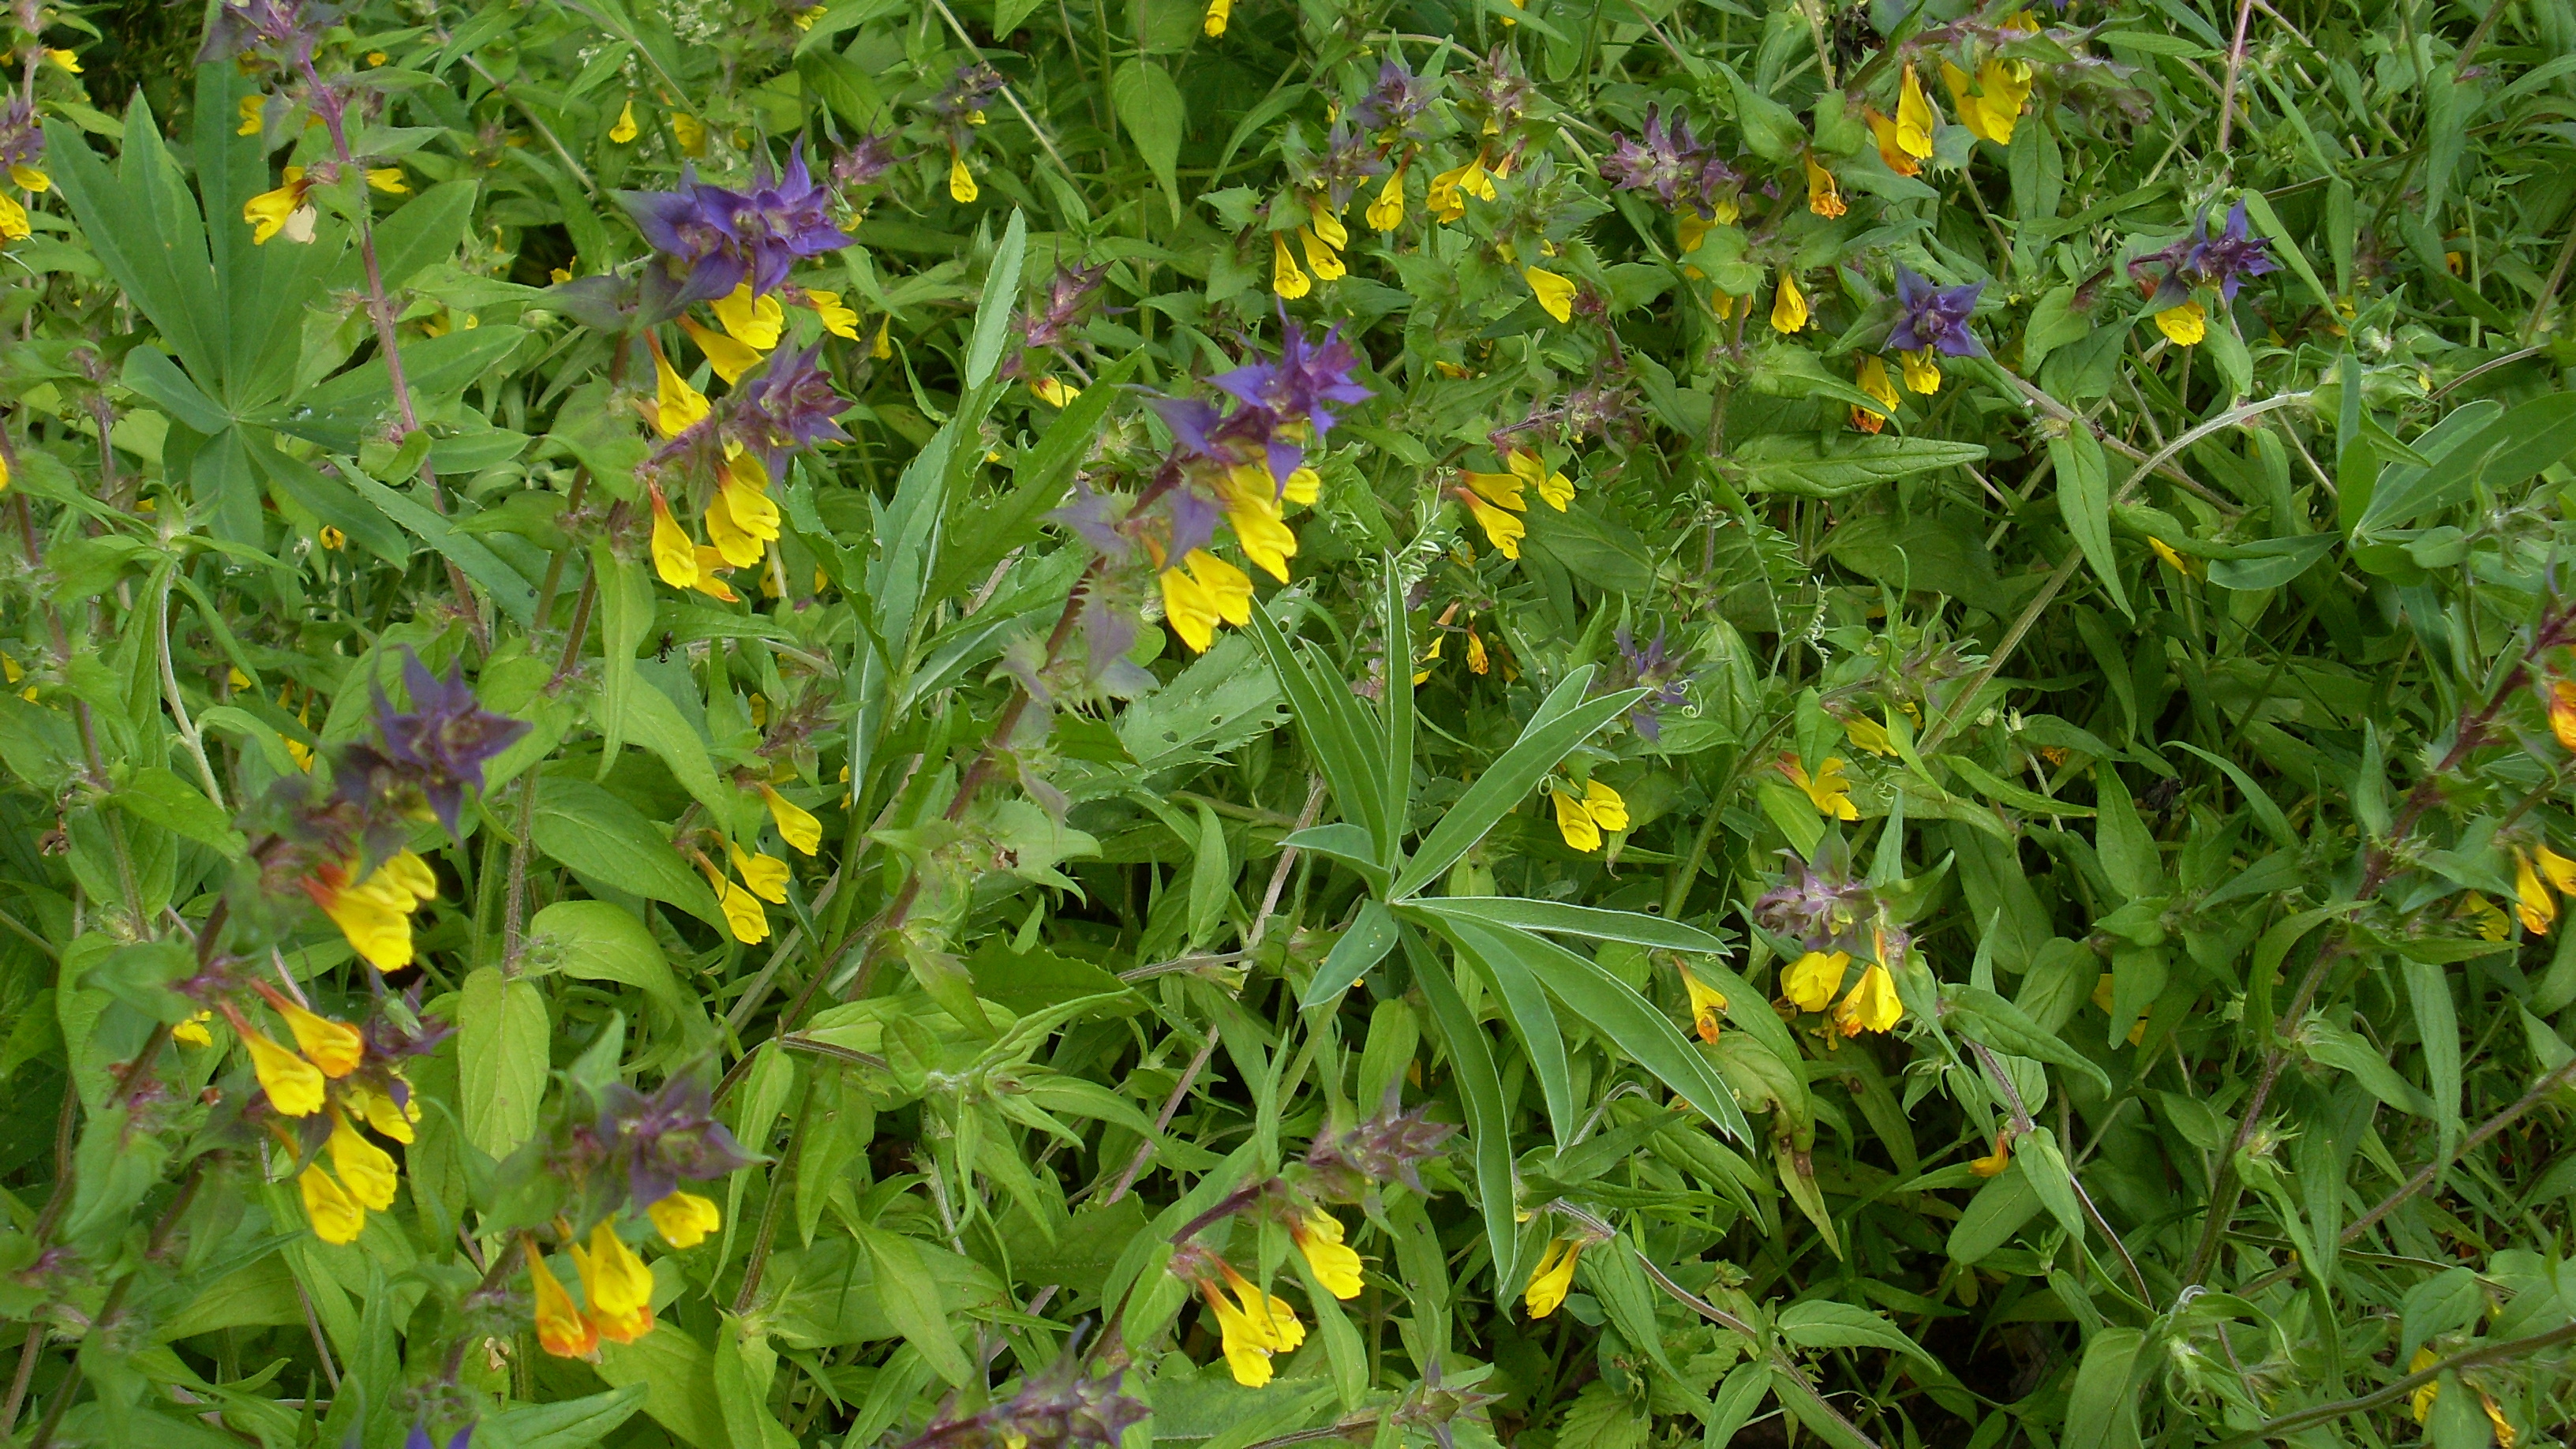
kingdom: Plantae
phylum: Tracheophyta
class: Magnoliopsida
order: Lamiales
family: Orobanchaceae
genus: Melampyrum
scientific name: Melampyrum nemorosum
